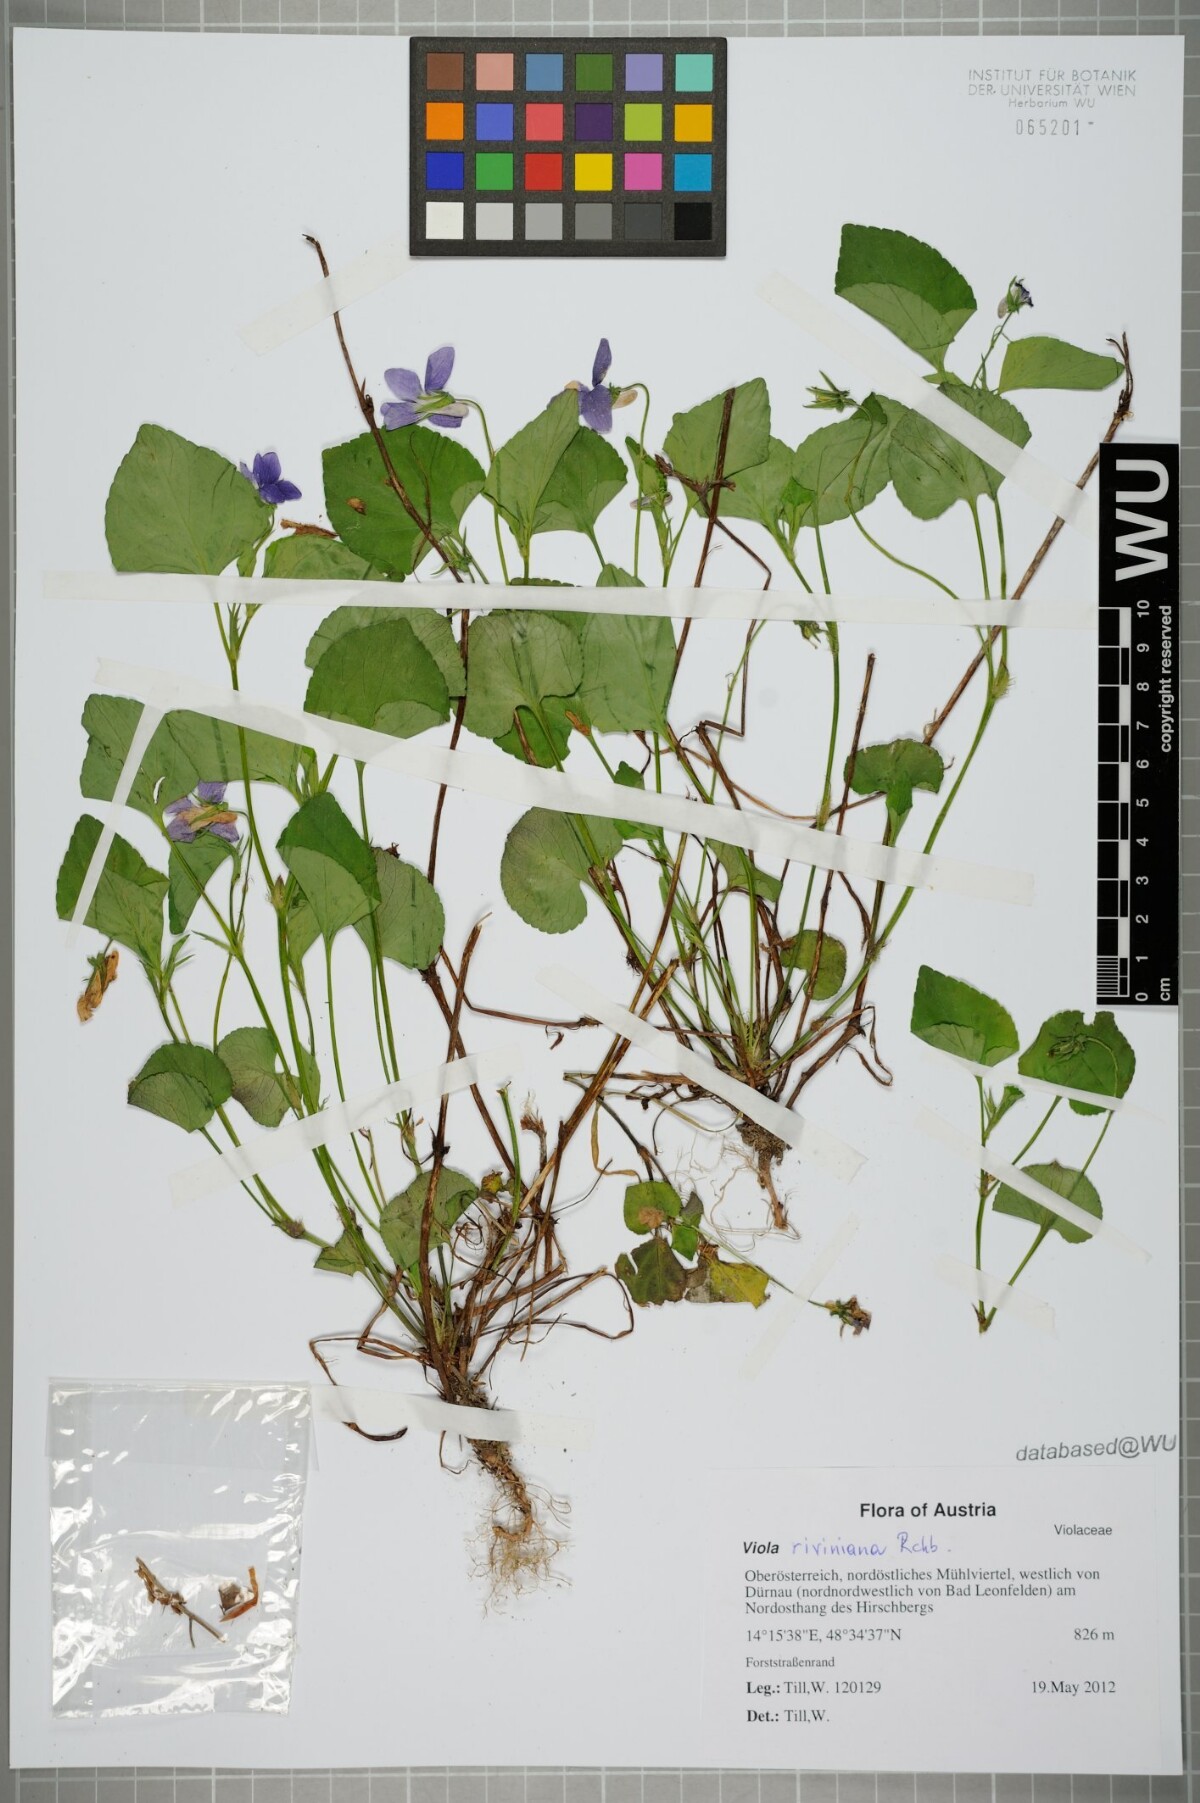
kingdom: Plantae
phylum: Tracheophyta
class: Magnoliopsida
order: Malpighiales
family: Violaceae
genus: Viola
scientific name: Viola riviniana
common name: Common dog-violet
